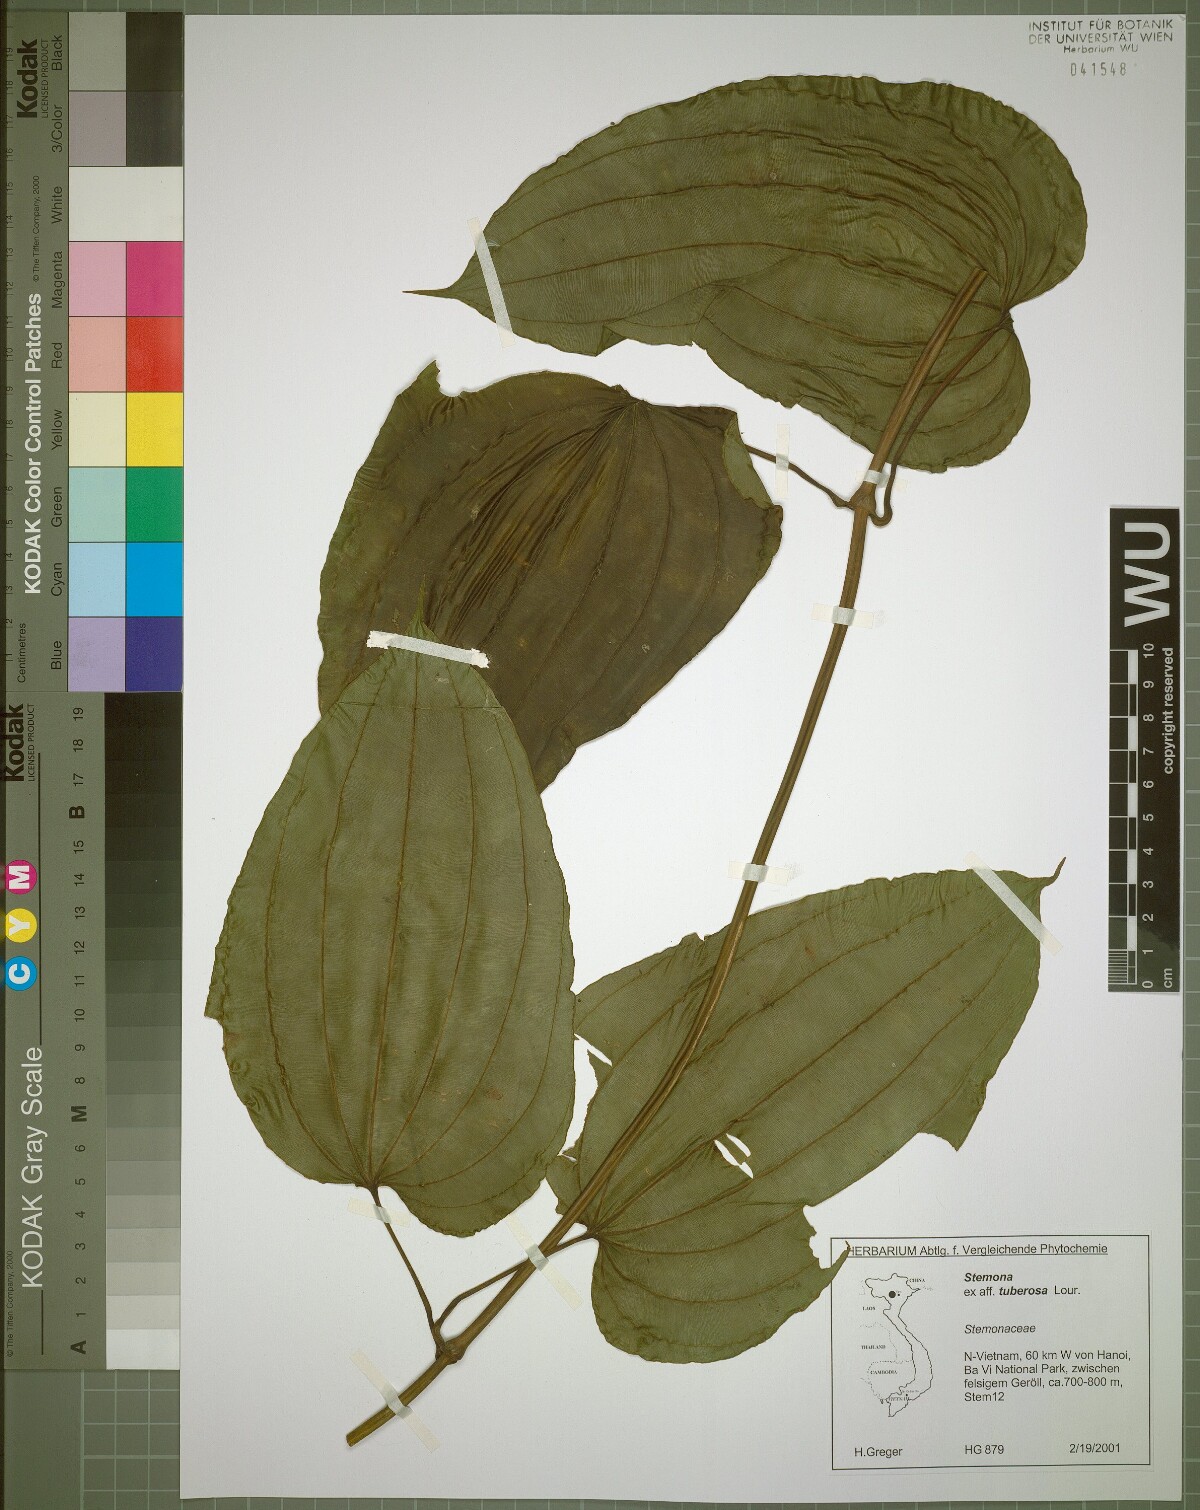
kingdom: Plantae
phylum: Tracheophyta
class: Liliopsida
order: Pandanales
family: Stemonaceae
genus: Stemona
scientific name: Stemona tuberosa
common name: Stemona
